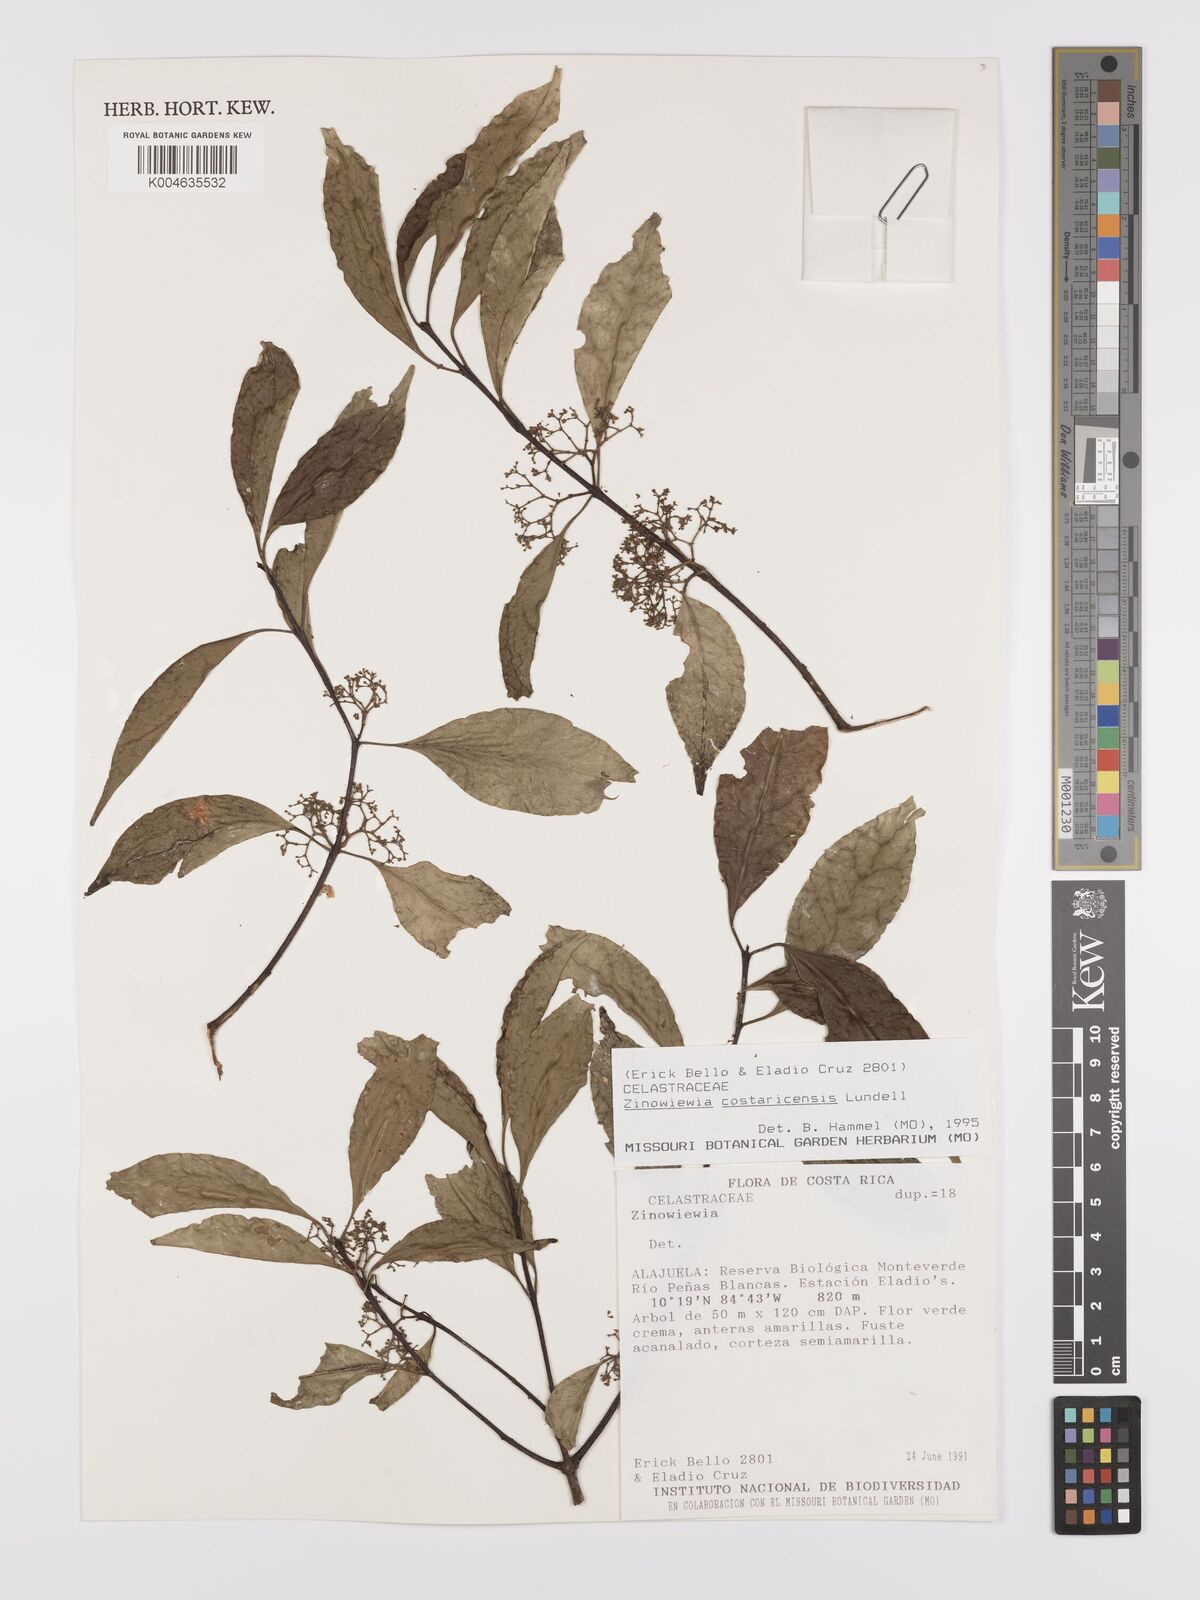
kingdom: Plantae
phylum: Tracheophyta
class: Magnoliopsida
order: Celastrales
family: Celastraceae
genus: Zinowiewia
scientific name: Zinowiewia integerrima
